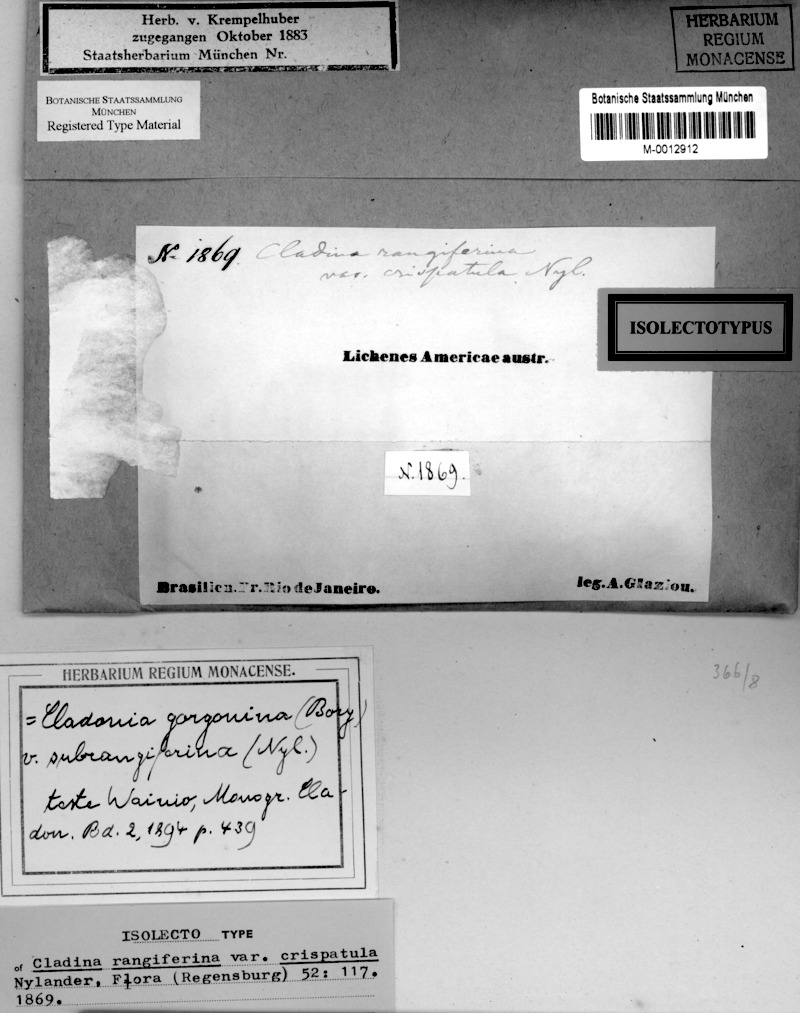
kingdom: Fungi
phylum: Ascomycota
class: Lecanoromycetes
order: Lecanorales
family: Cladoniaceae
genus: Cladonia
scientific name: Cladonia crispatula
